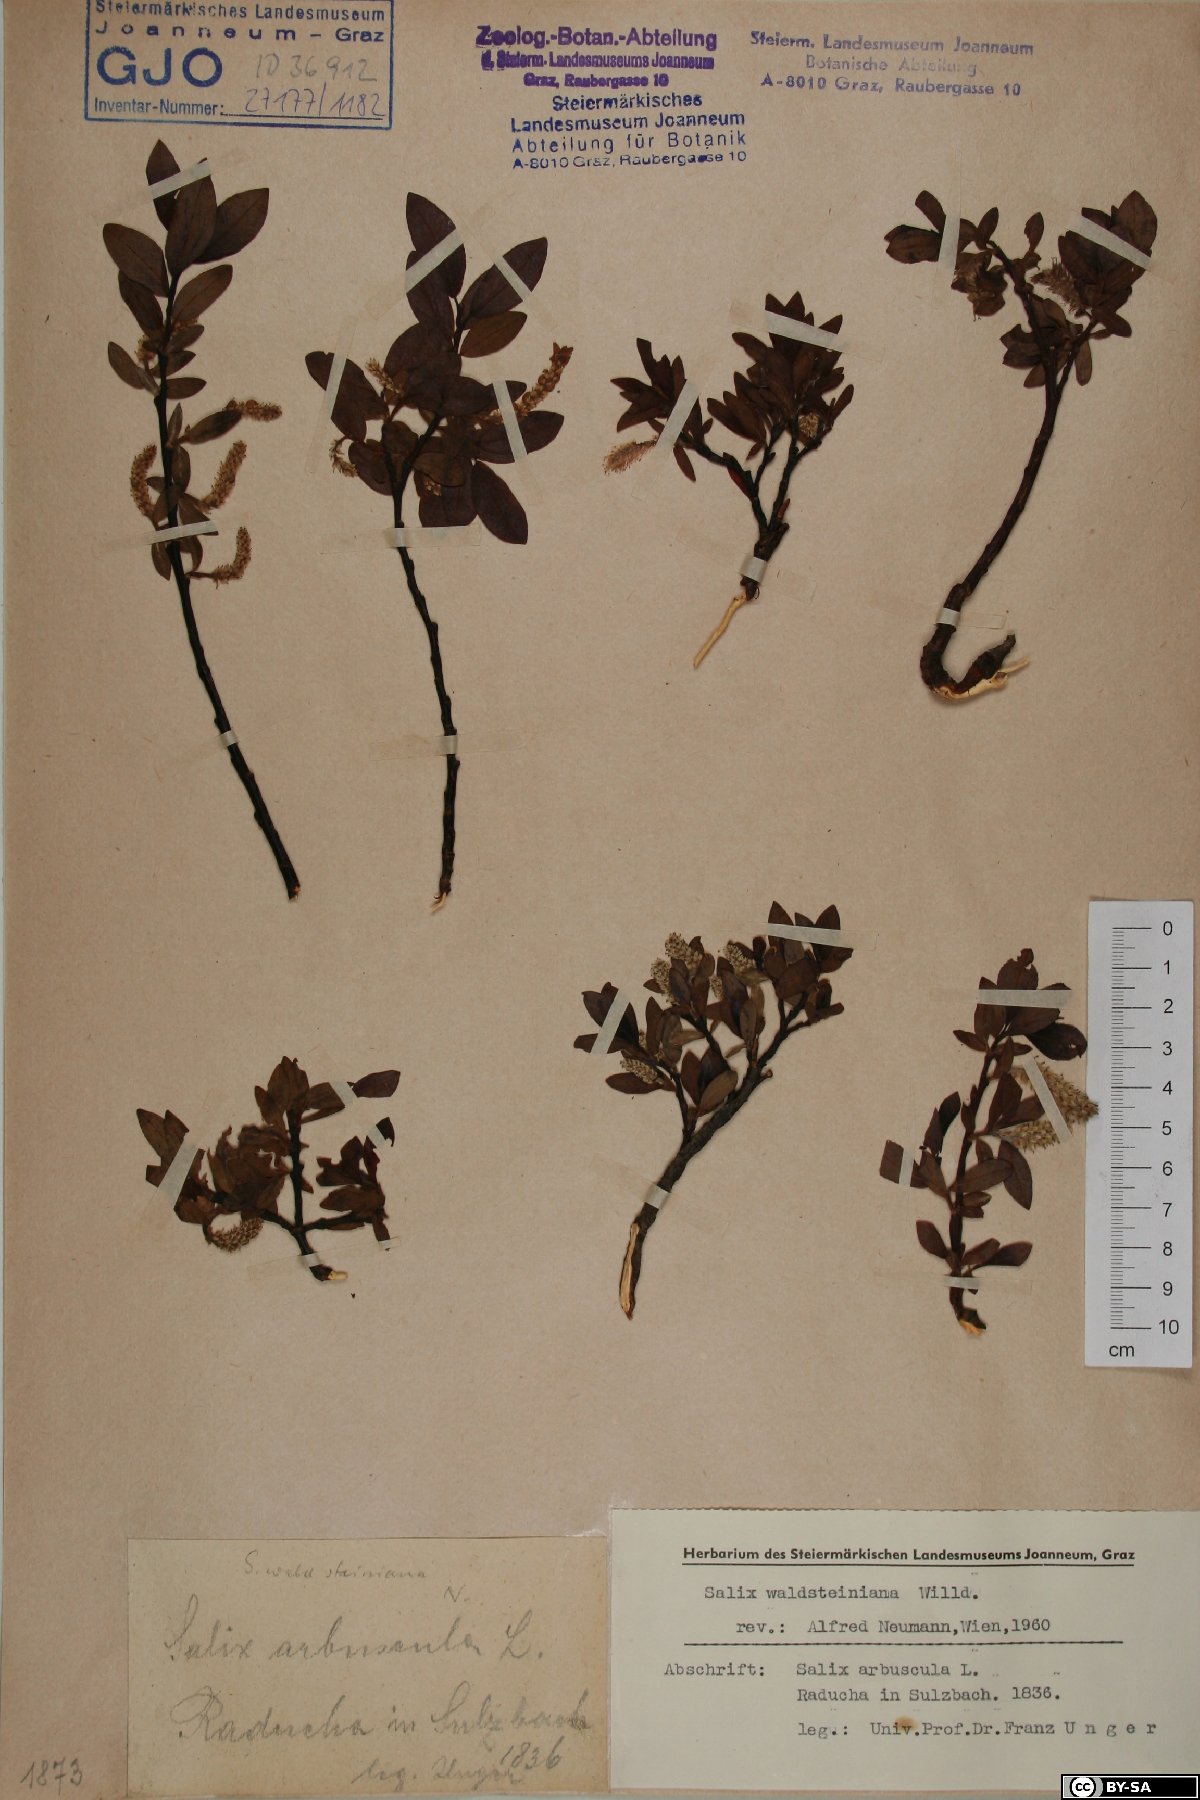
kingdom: Plantae
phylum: Tracheophyta
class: Magnoliopsida
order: Malpighiales
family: Salicaceae
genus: Salix
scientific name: Salix waldsteiniana
